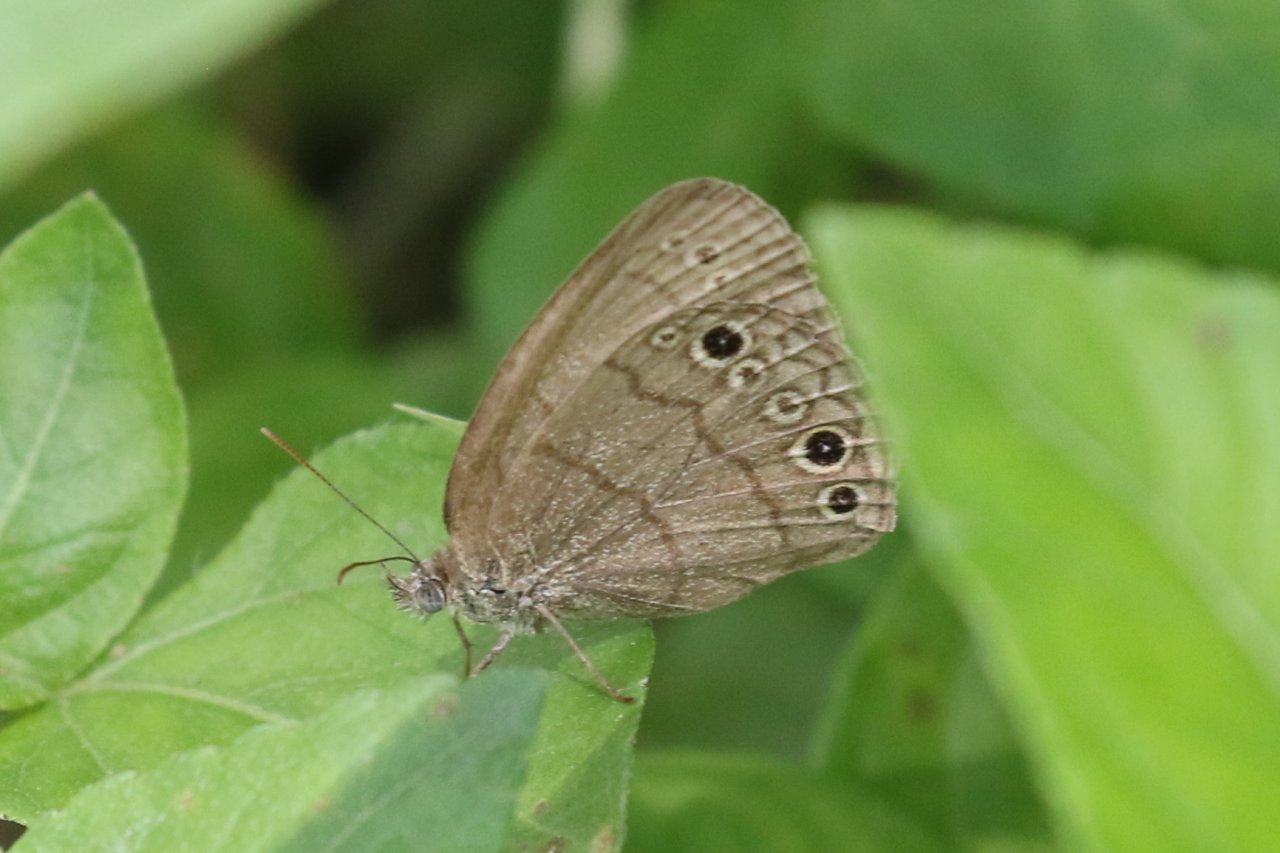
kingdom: Animalia
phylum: Arthropoda
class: Insecta
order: Lepidoptera
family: Nymphalidae
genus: Hermeuptychia
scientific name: Hermeuptychia hermybius
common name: South Texas Satyr
